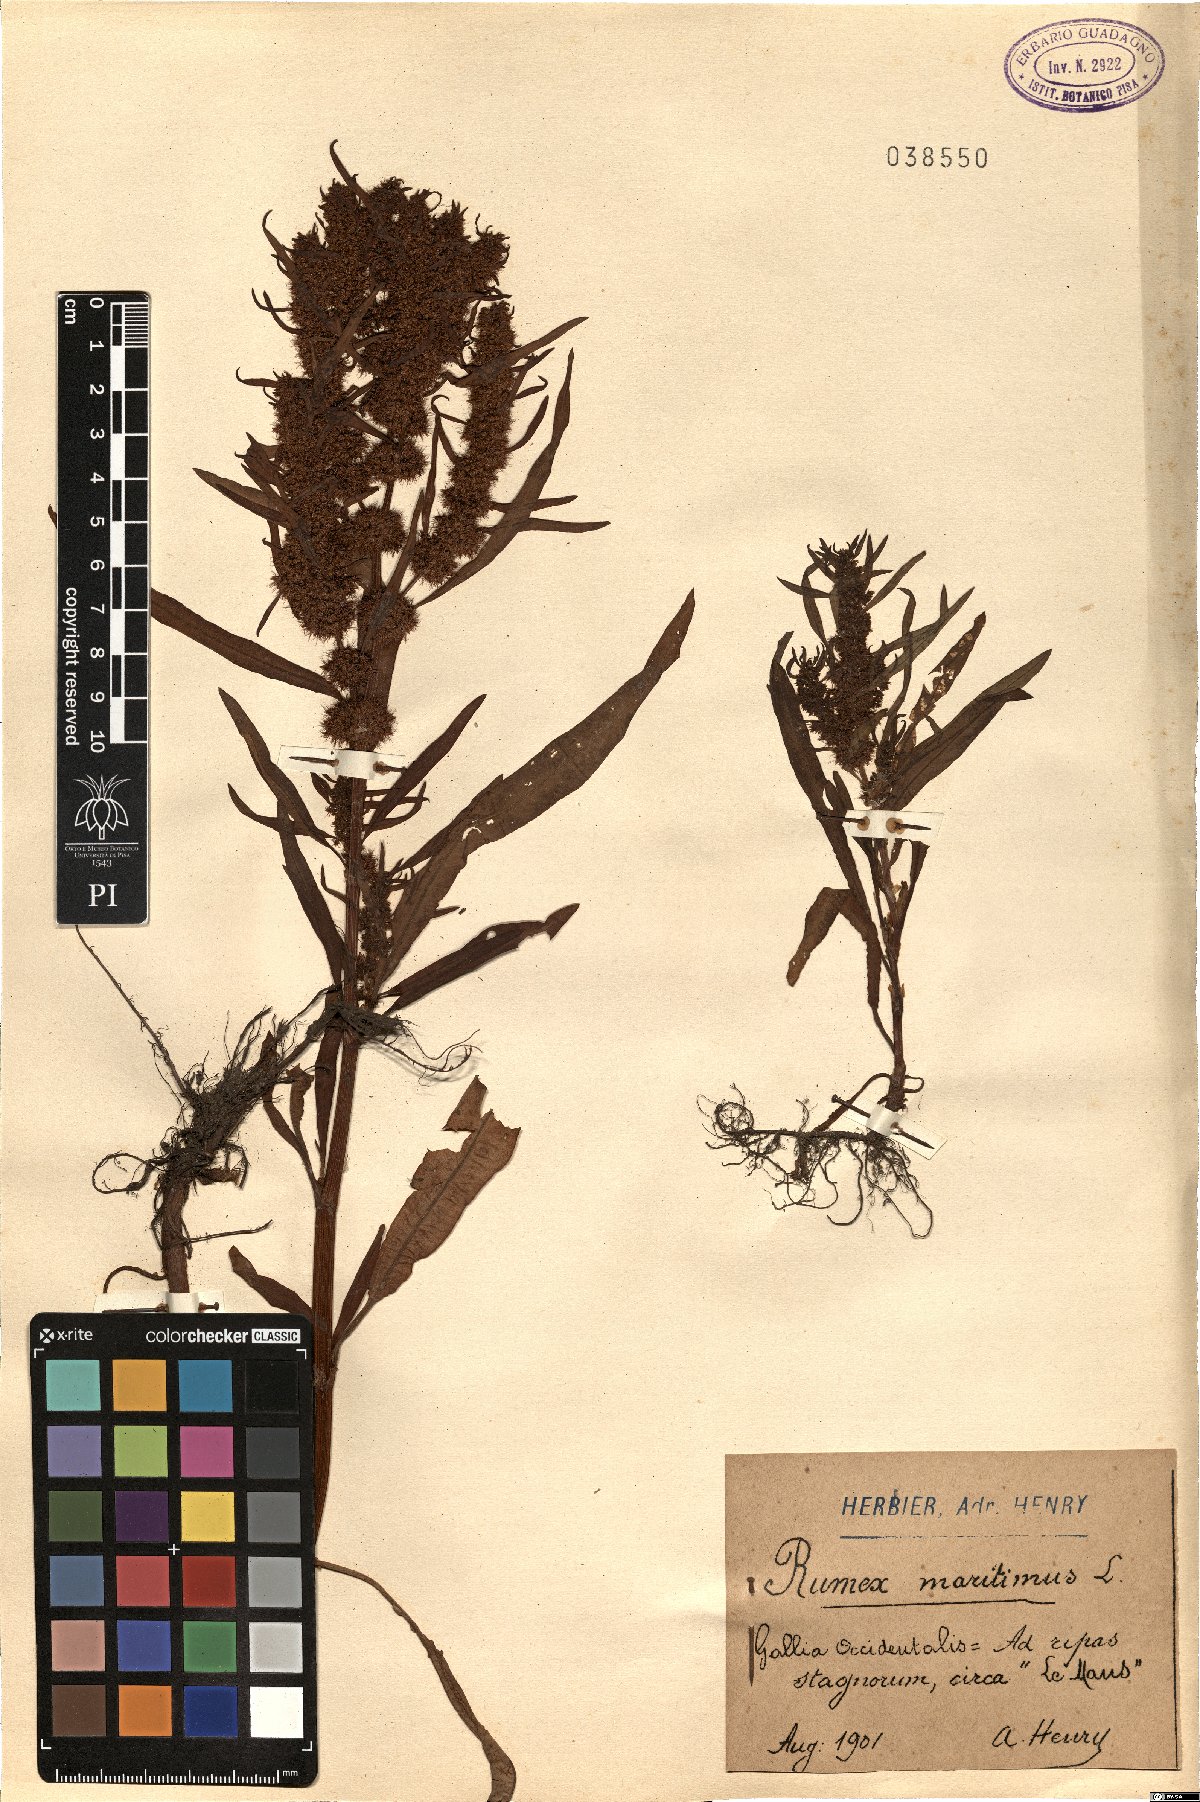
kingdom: Plantae
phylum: Tracheophyta
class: Magnoliopsida
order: Caryophyllales
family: Polygonaceae
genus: Rumex
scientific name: Rumex maritimus
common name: Golden dock
